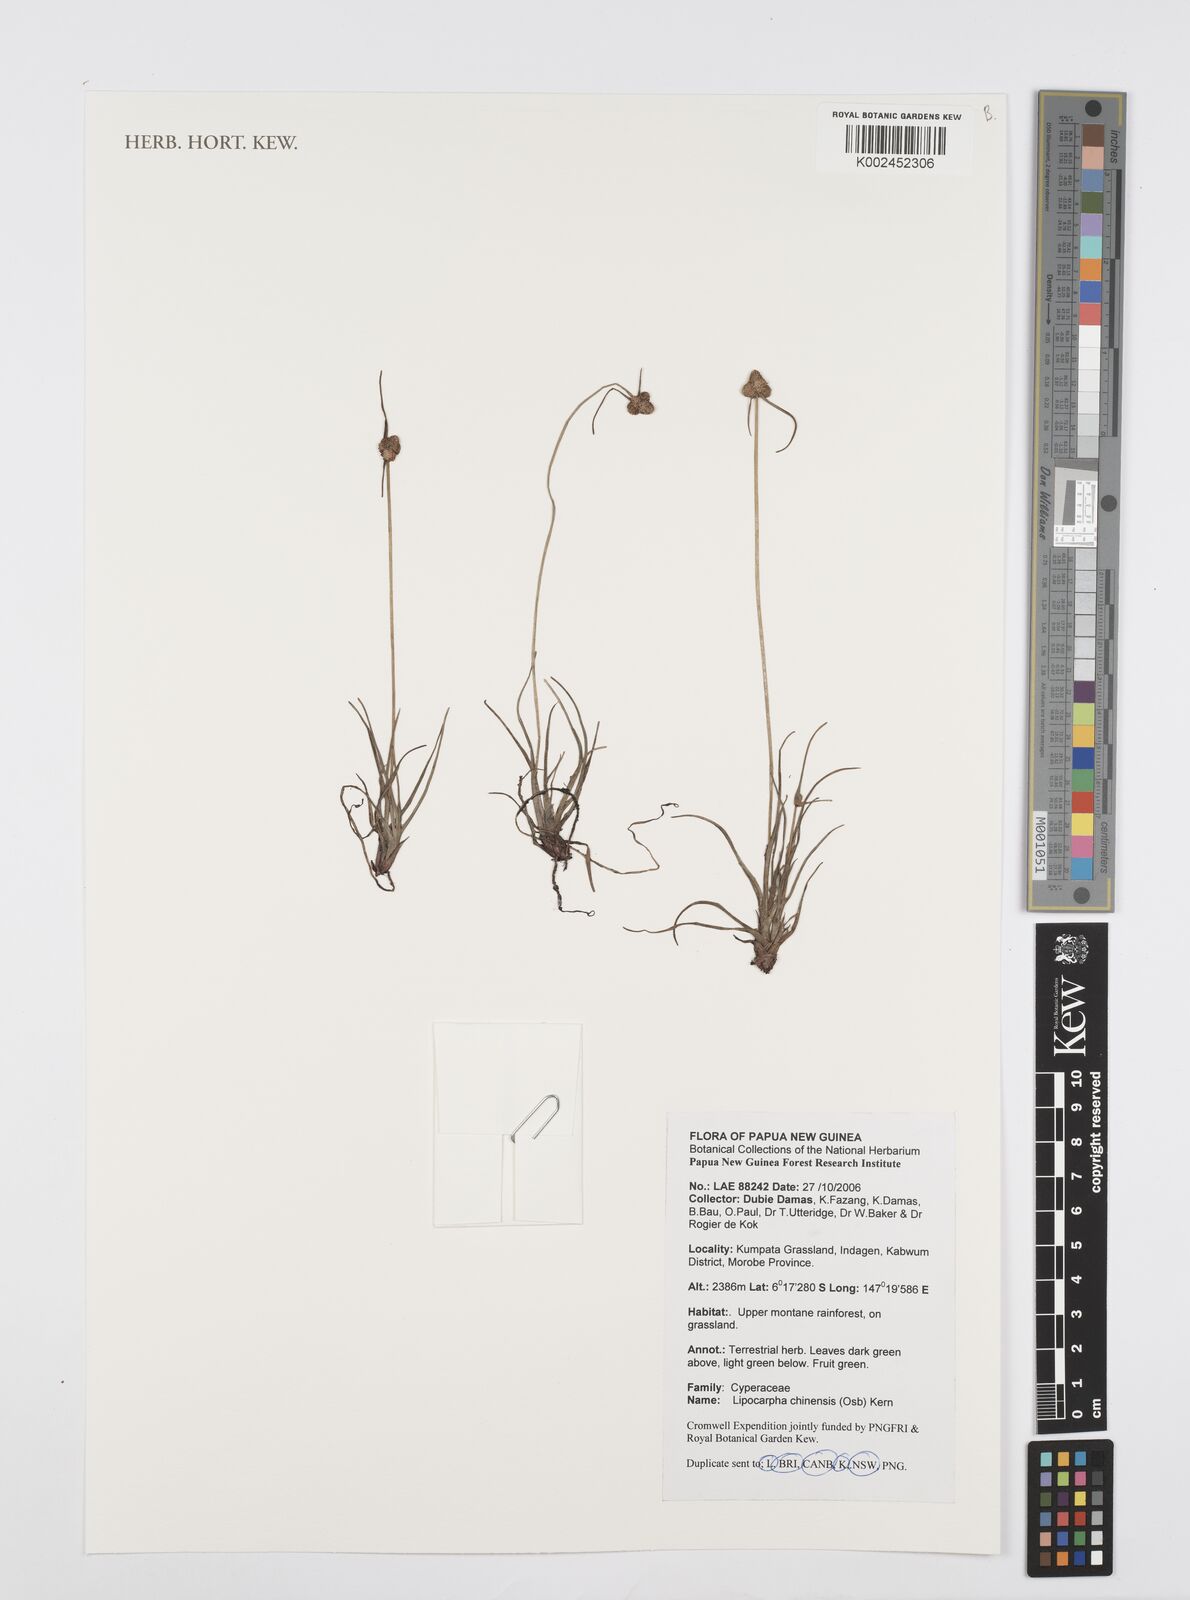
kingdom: Plantae
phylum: Tracheophyta
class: Liliopsida
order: Poales
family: Cyperaceae
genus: Cyperus
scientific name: Cyperus
